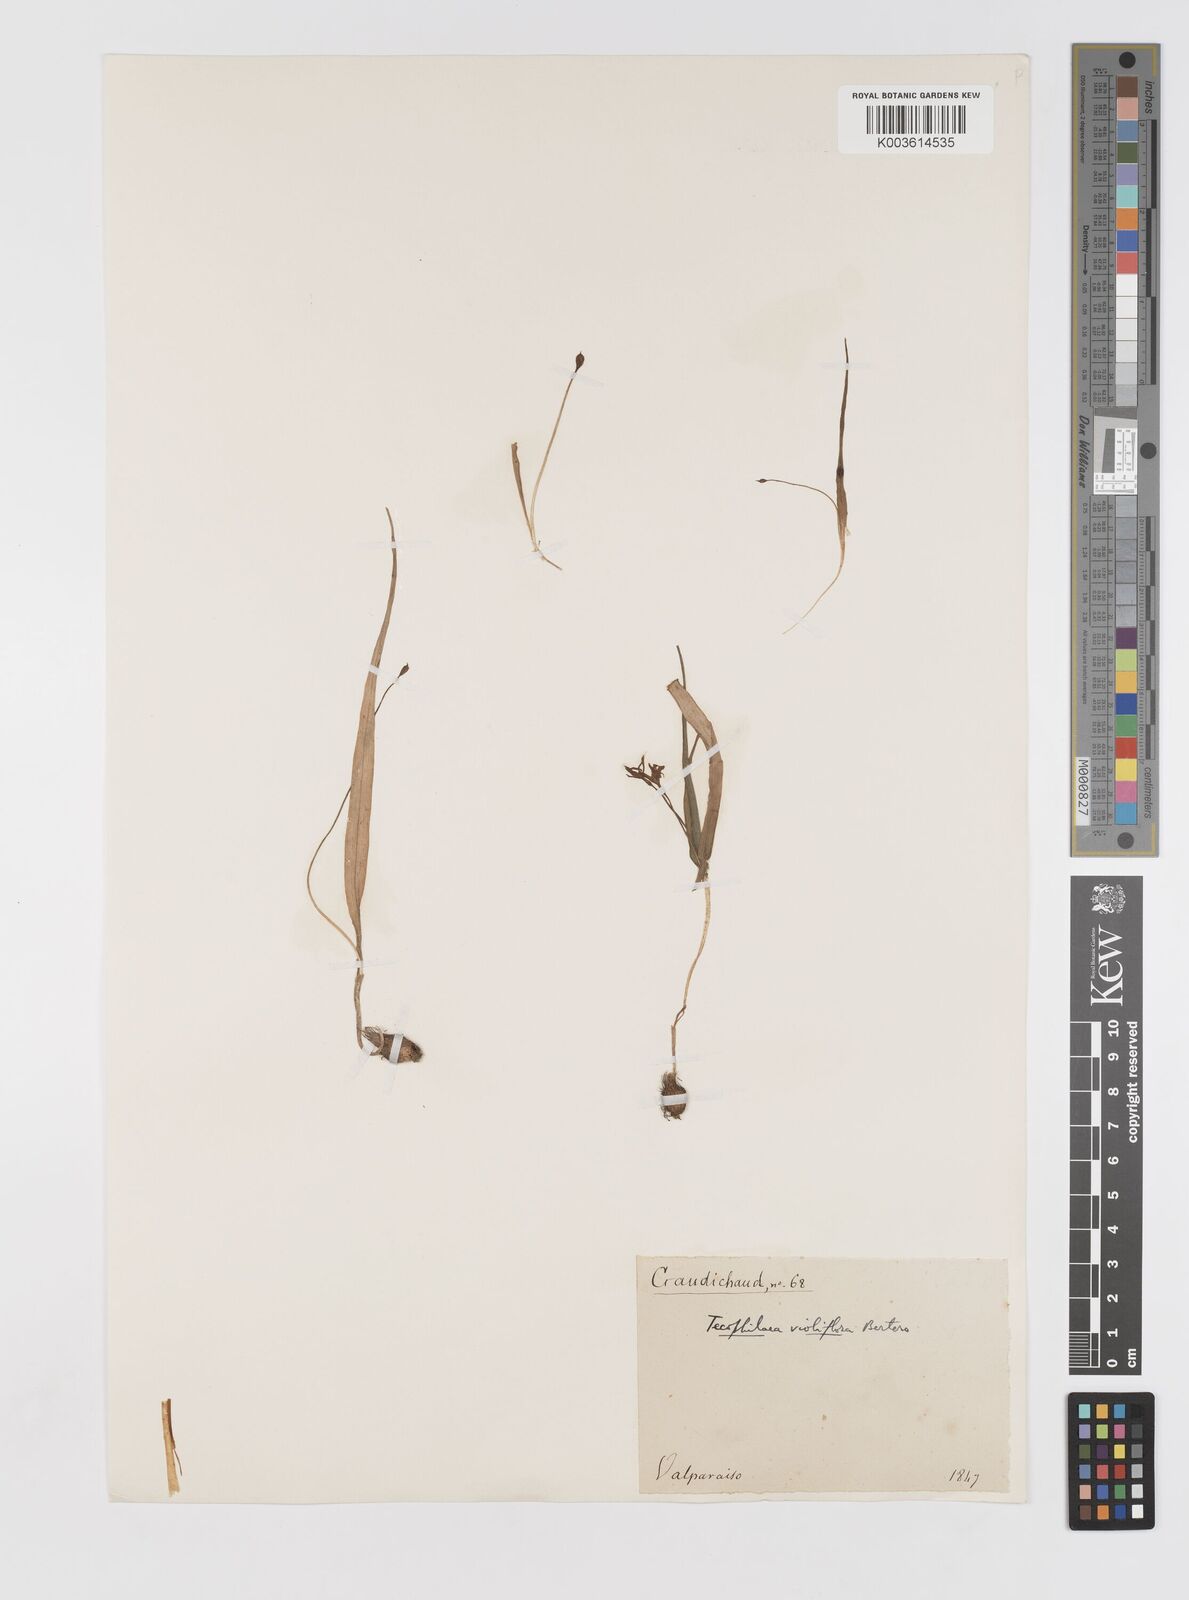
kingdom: Plantae
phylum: Tracheophyta
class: Liliopsida
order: Asparagales
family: Tecophilaeaceae
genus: Tecophilaea
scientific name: Tecophilaea violiflora
